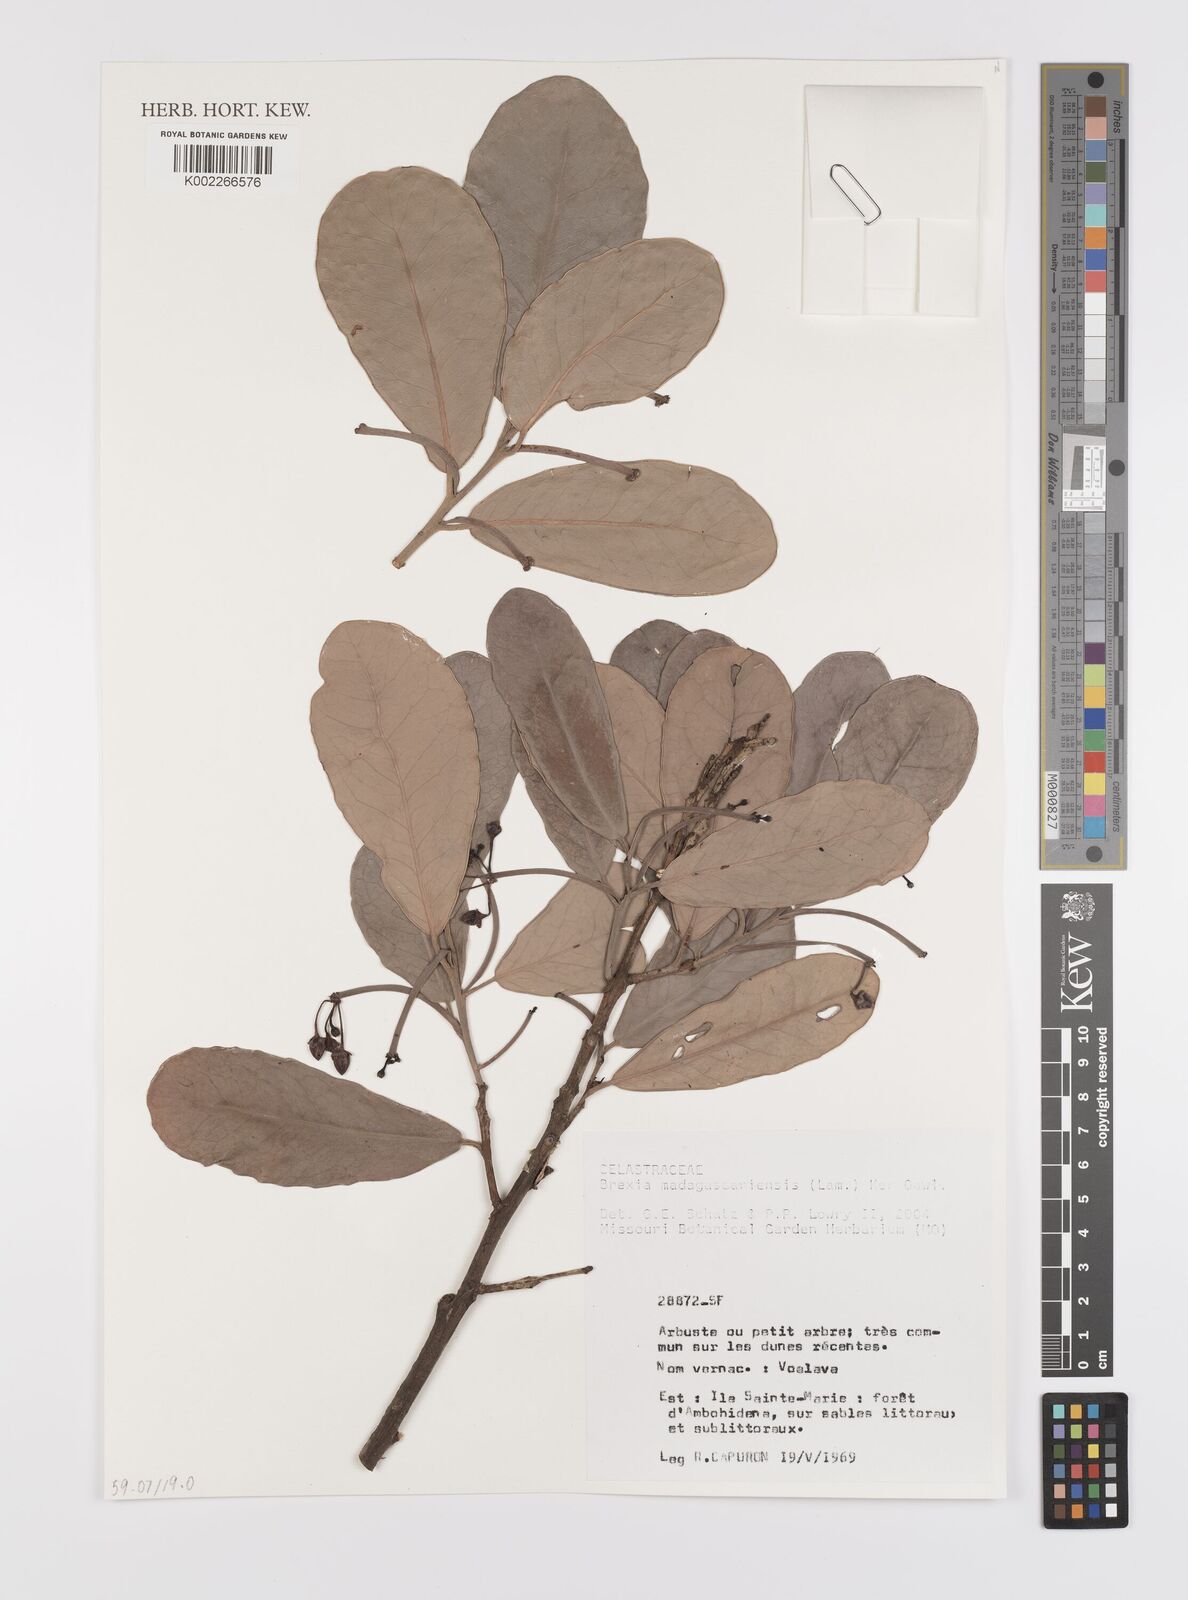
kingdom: Plantae
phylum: Tracheophyta
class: Magnoliopsida
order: Celastrales
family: Celastraceae
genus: Brexia
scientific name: Brexia madagascariensis
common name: Brexia
